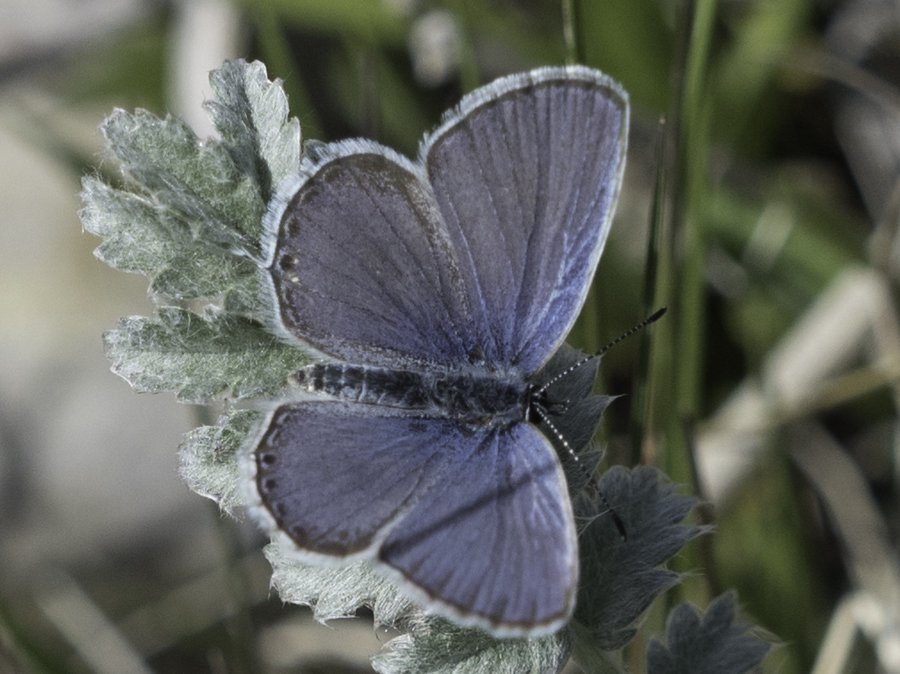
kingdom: Animalia
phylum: Arthropoda
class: Insecta
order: Lepidoptera
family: Lycaenidae
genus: Elkalyce
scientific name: Elkalyce amyntula
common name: Western Tailed-Blue
